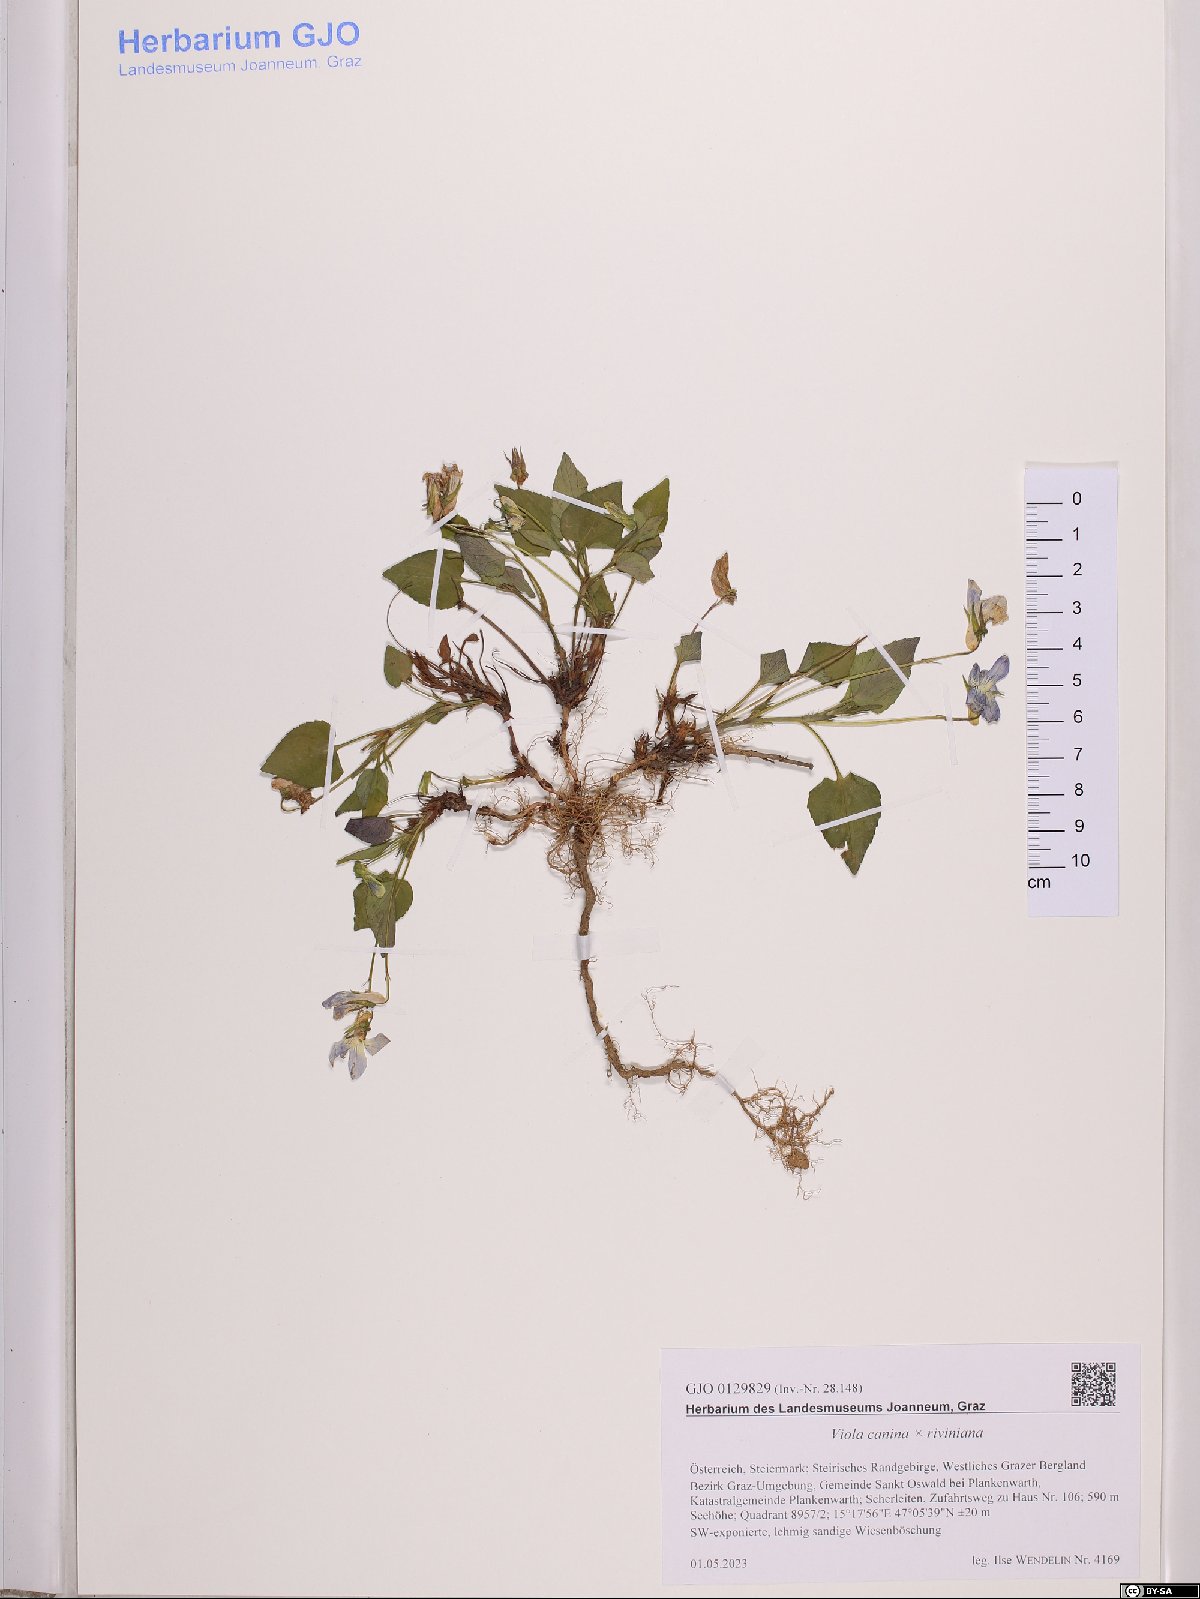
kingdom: Plantae
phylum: Tracheophyta
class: Magnoliopsida
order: Malpighiales
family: Violaceae
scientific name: Violaceae
